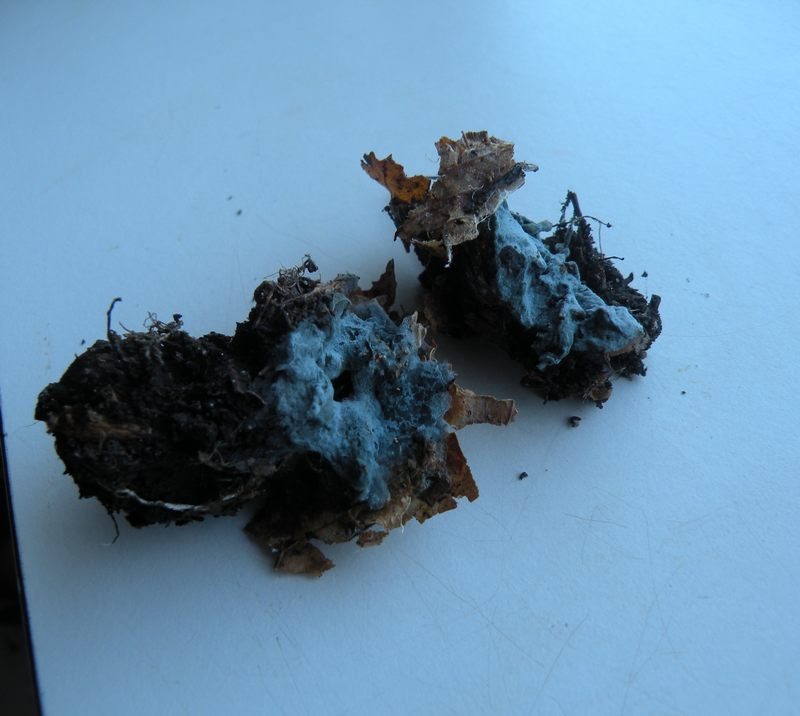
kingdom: Fungi
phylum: Basidiomycota
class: Agaricomycetes
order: Atheliales
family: Atheliaceae
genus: Byssocorticium
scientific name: Byssocorticium atrovirens
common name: blå førnehinde
